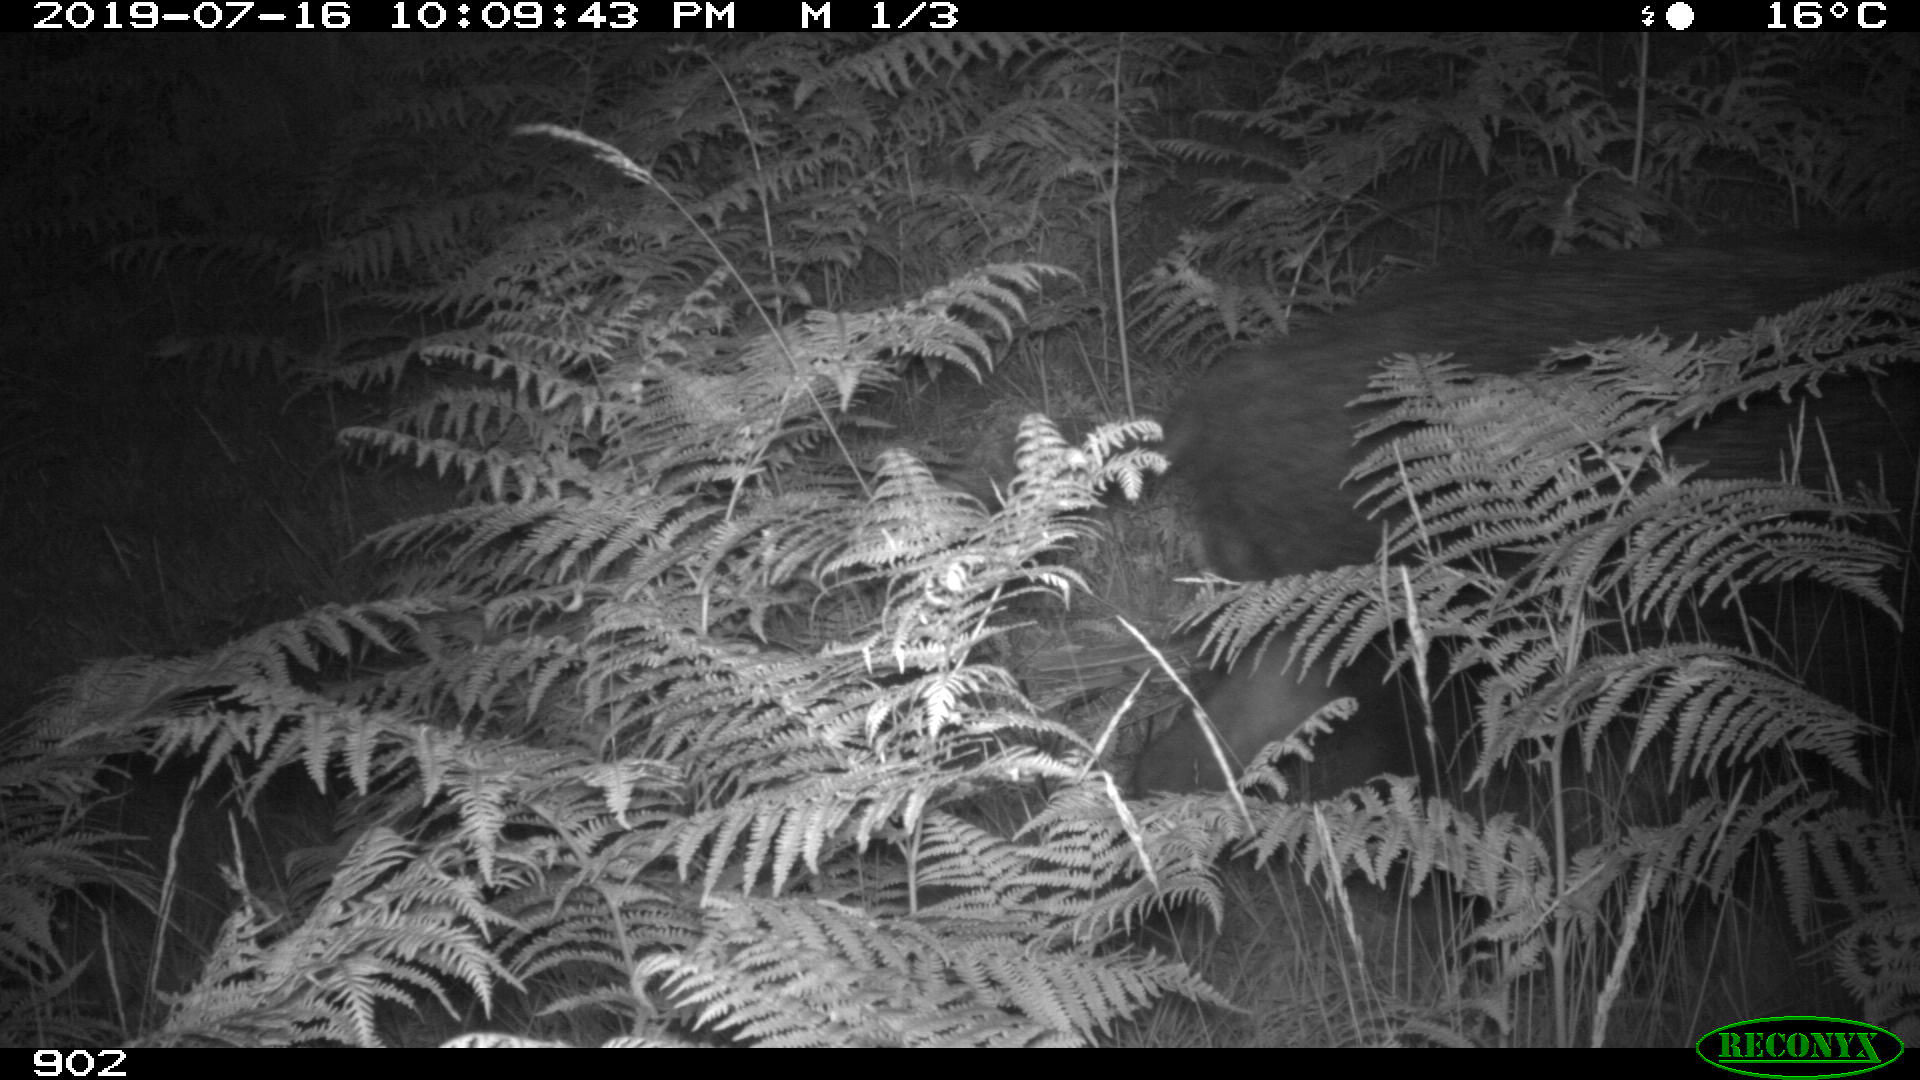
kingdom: Animalia
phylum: Chordata
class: Mammalia
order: Artiodactyla
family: Suidae
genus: Sus
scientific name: Sus scrofa
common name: Wild boar
